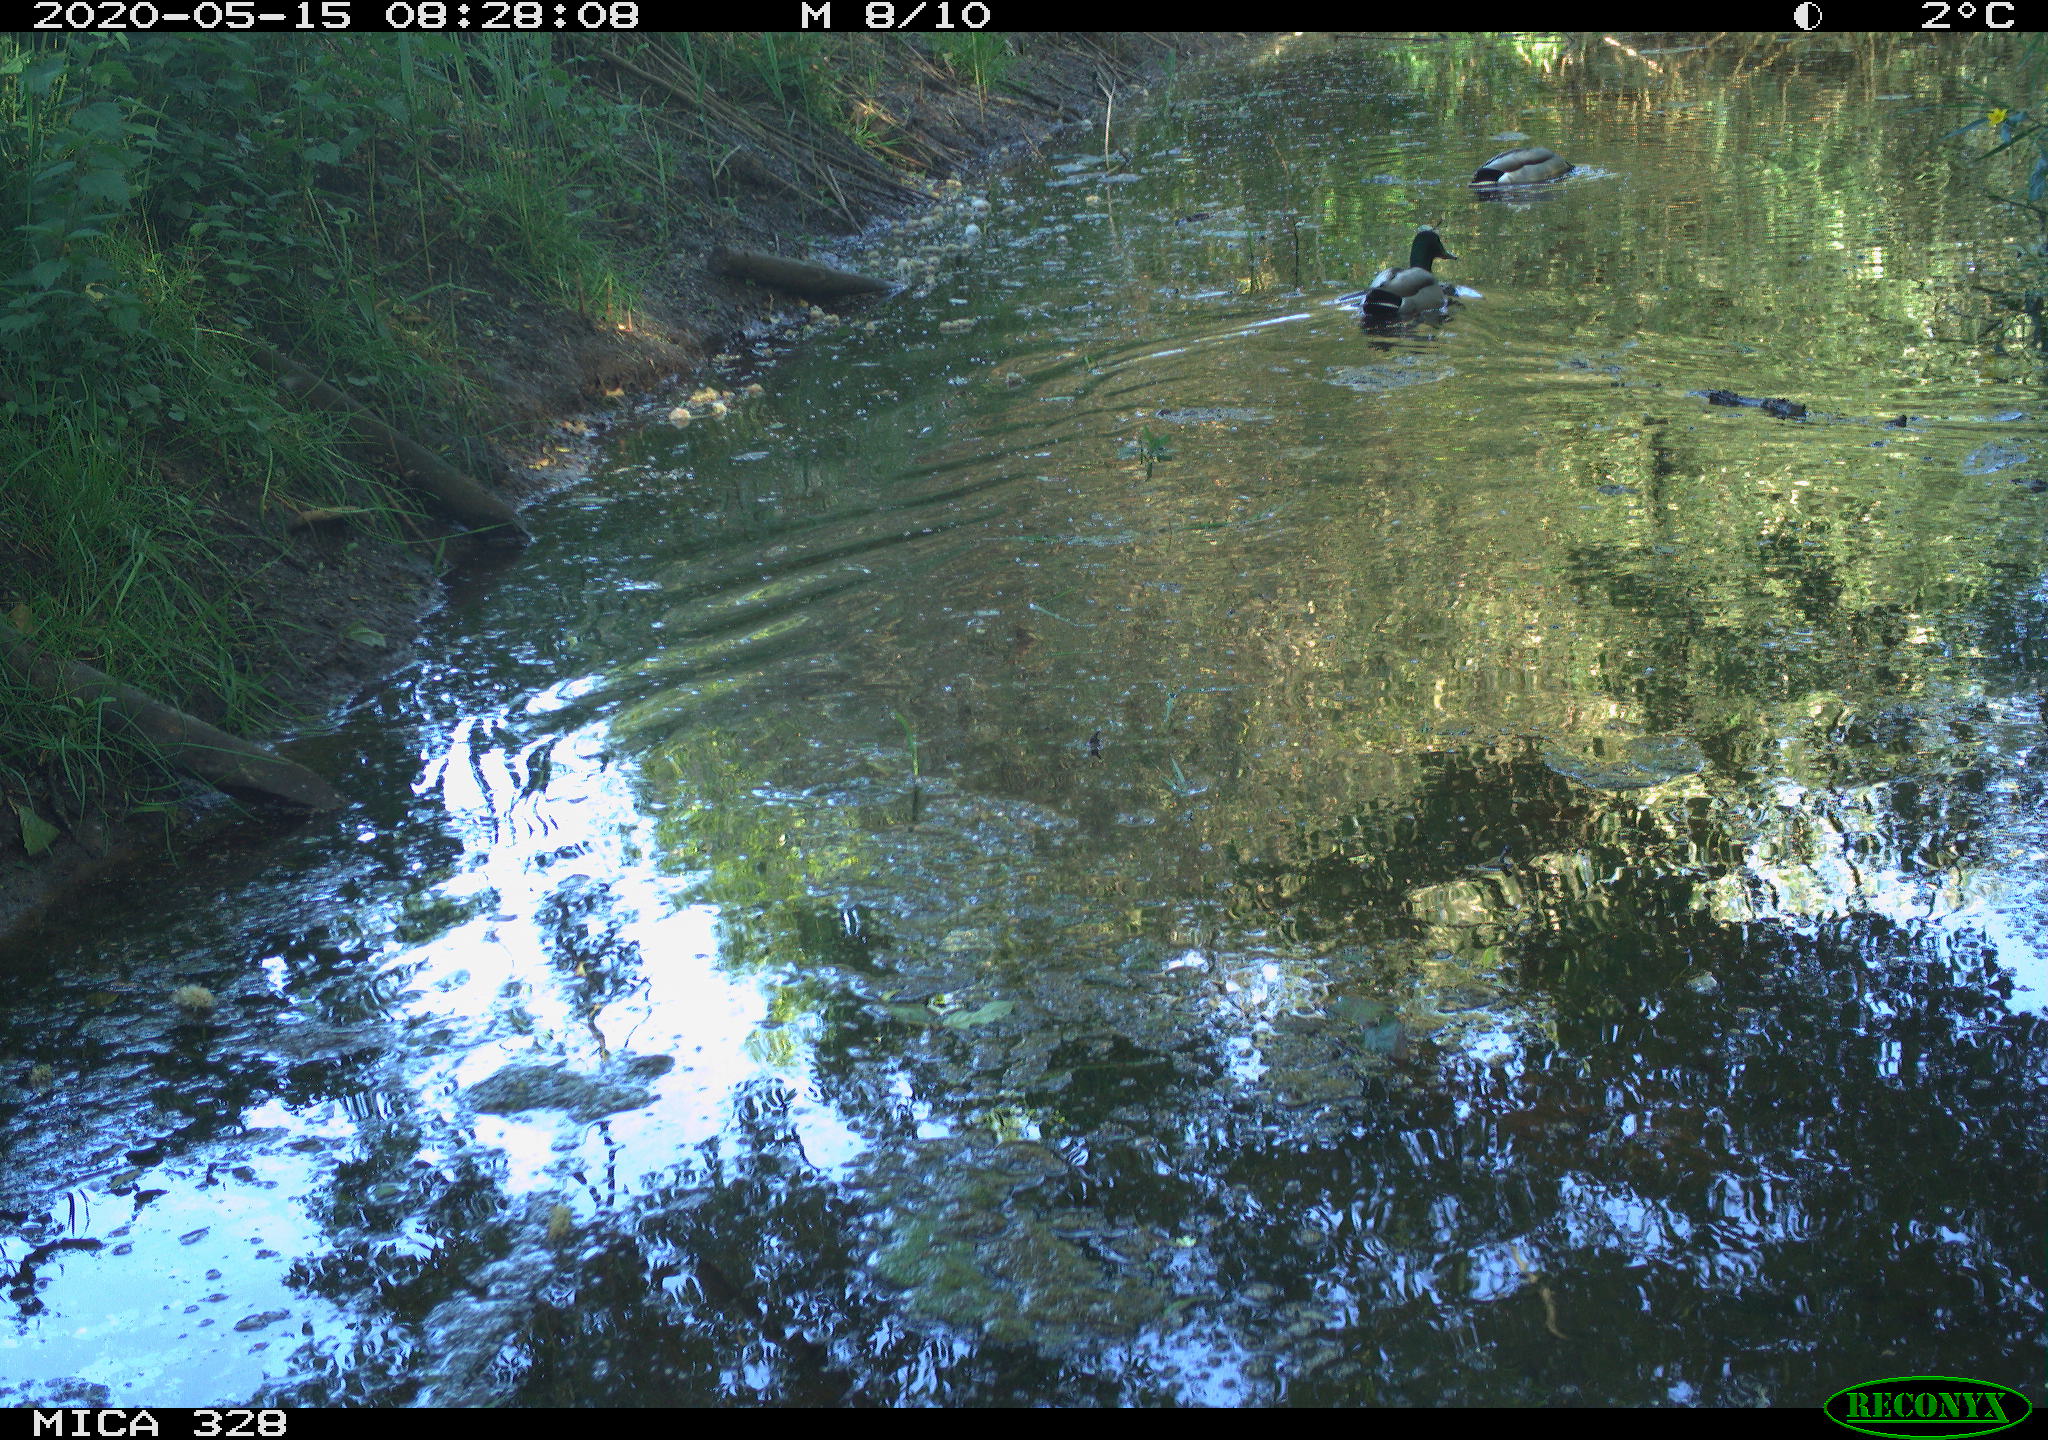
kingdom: Animalia
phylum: Chordata
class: Aves
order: Anseriformes
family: Anatidae
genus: Anas
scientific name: Anas platyrhynchos
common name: Mallard
